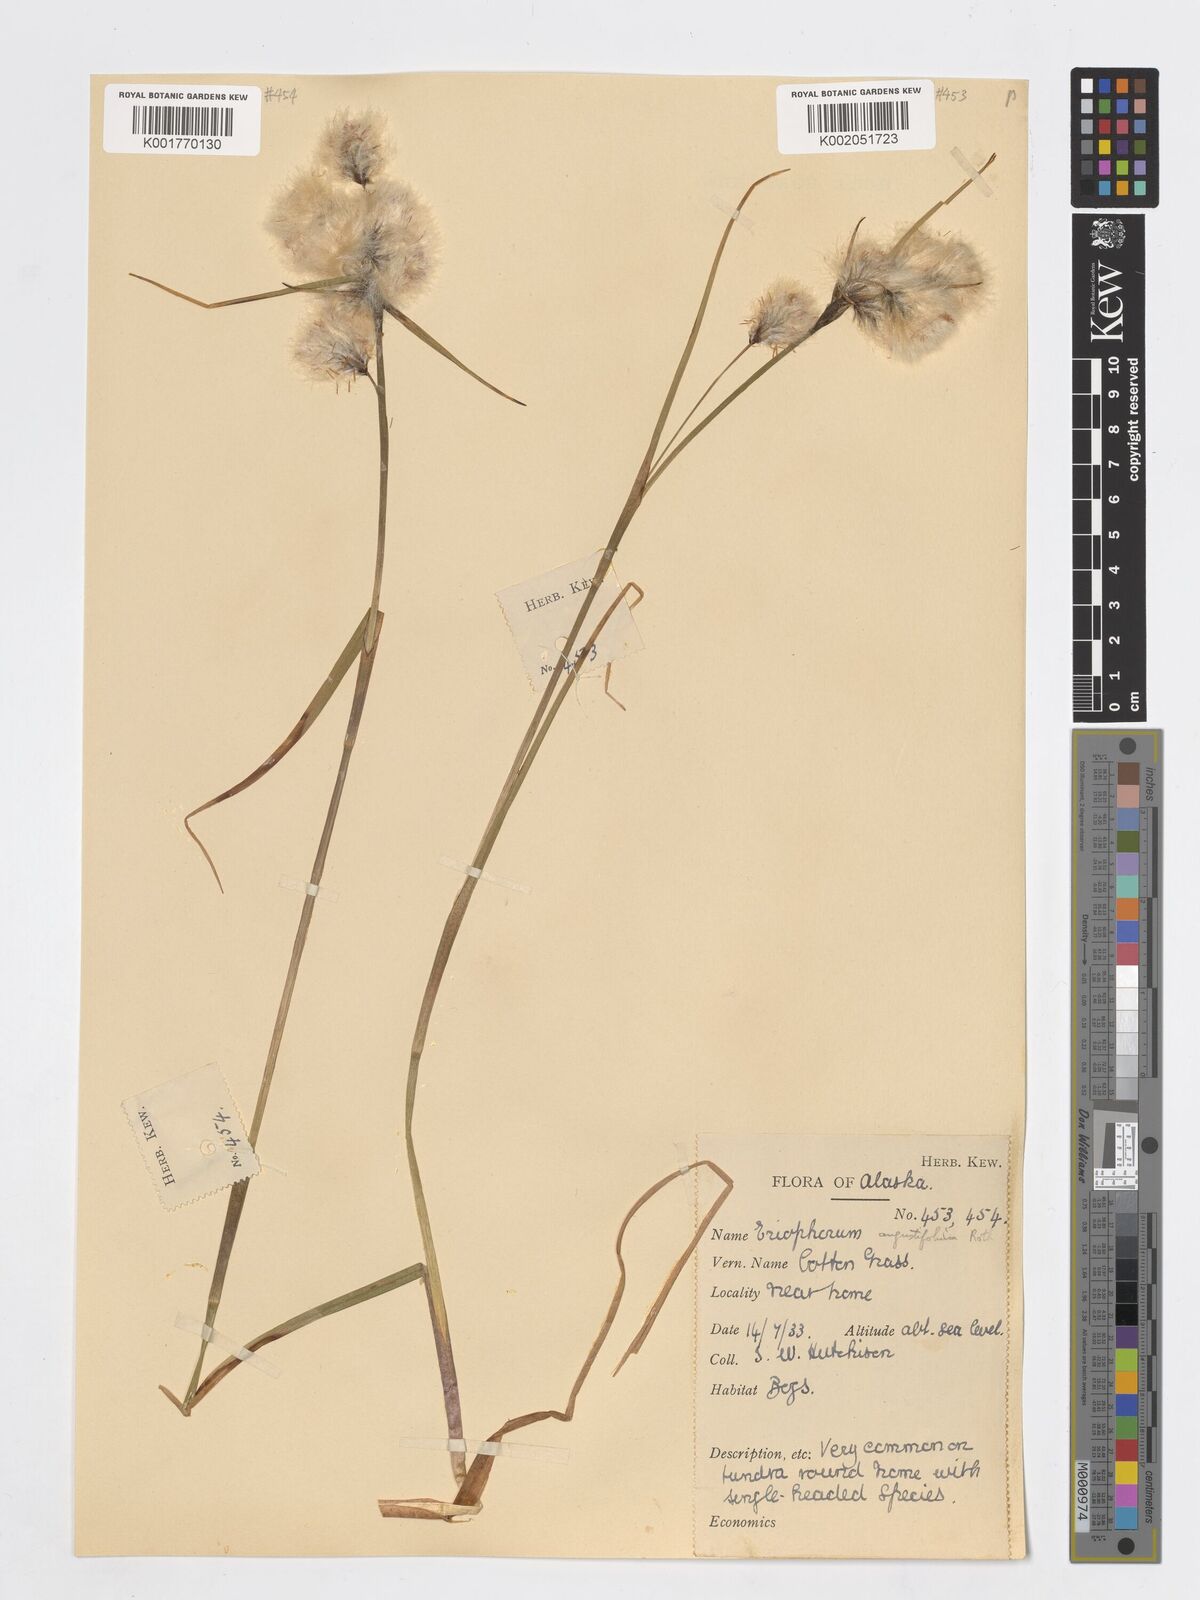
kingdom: Plantae
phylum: Tracheophyta
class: Liliopsida
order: Poales
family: Cyperaceae
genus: Eriophorum
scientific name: Eriophorum angustifolium
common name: Common cottongrass
